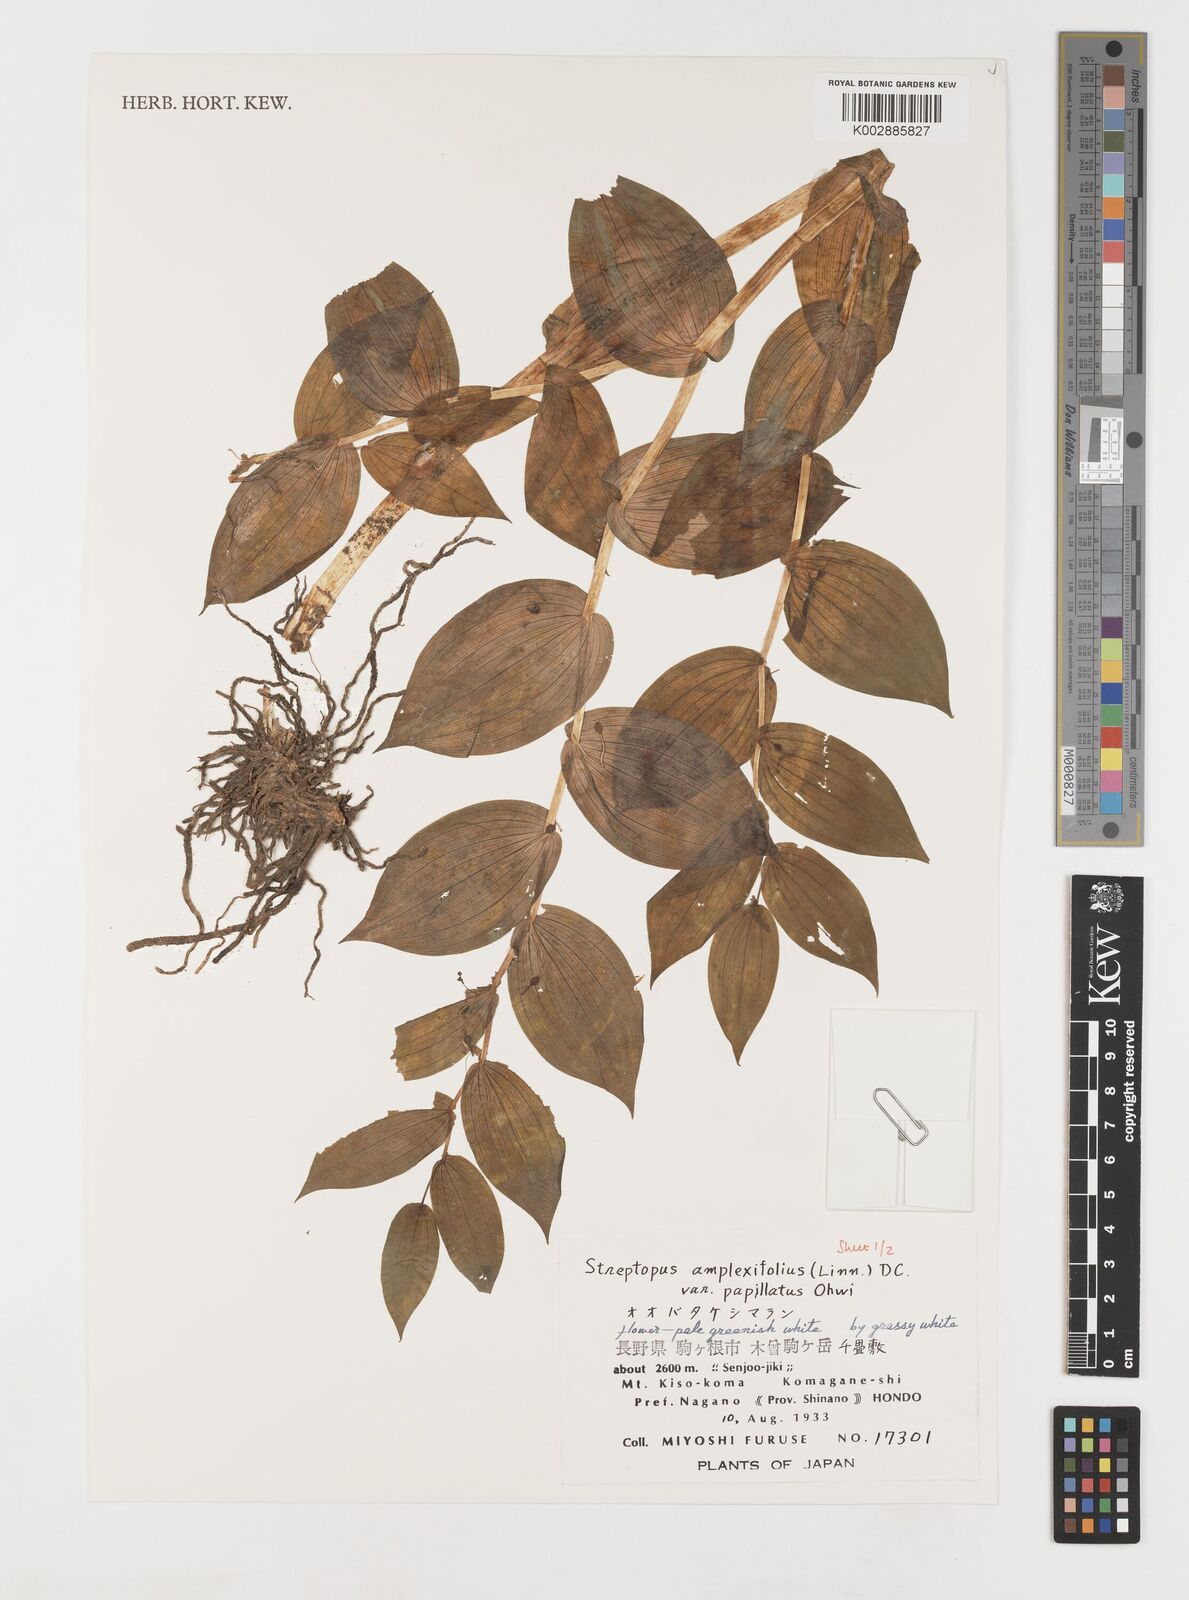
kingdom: Plantae
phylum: Tracheophyta
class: Liliopsida
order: Liliales
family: Liliaceae
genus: Streptopus
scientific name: Streptopus amplexifolius
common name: Clasp twisted stalk
